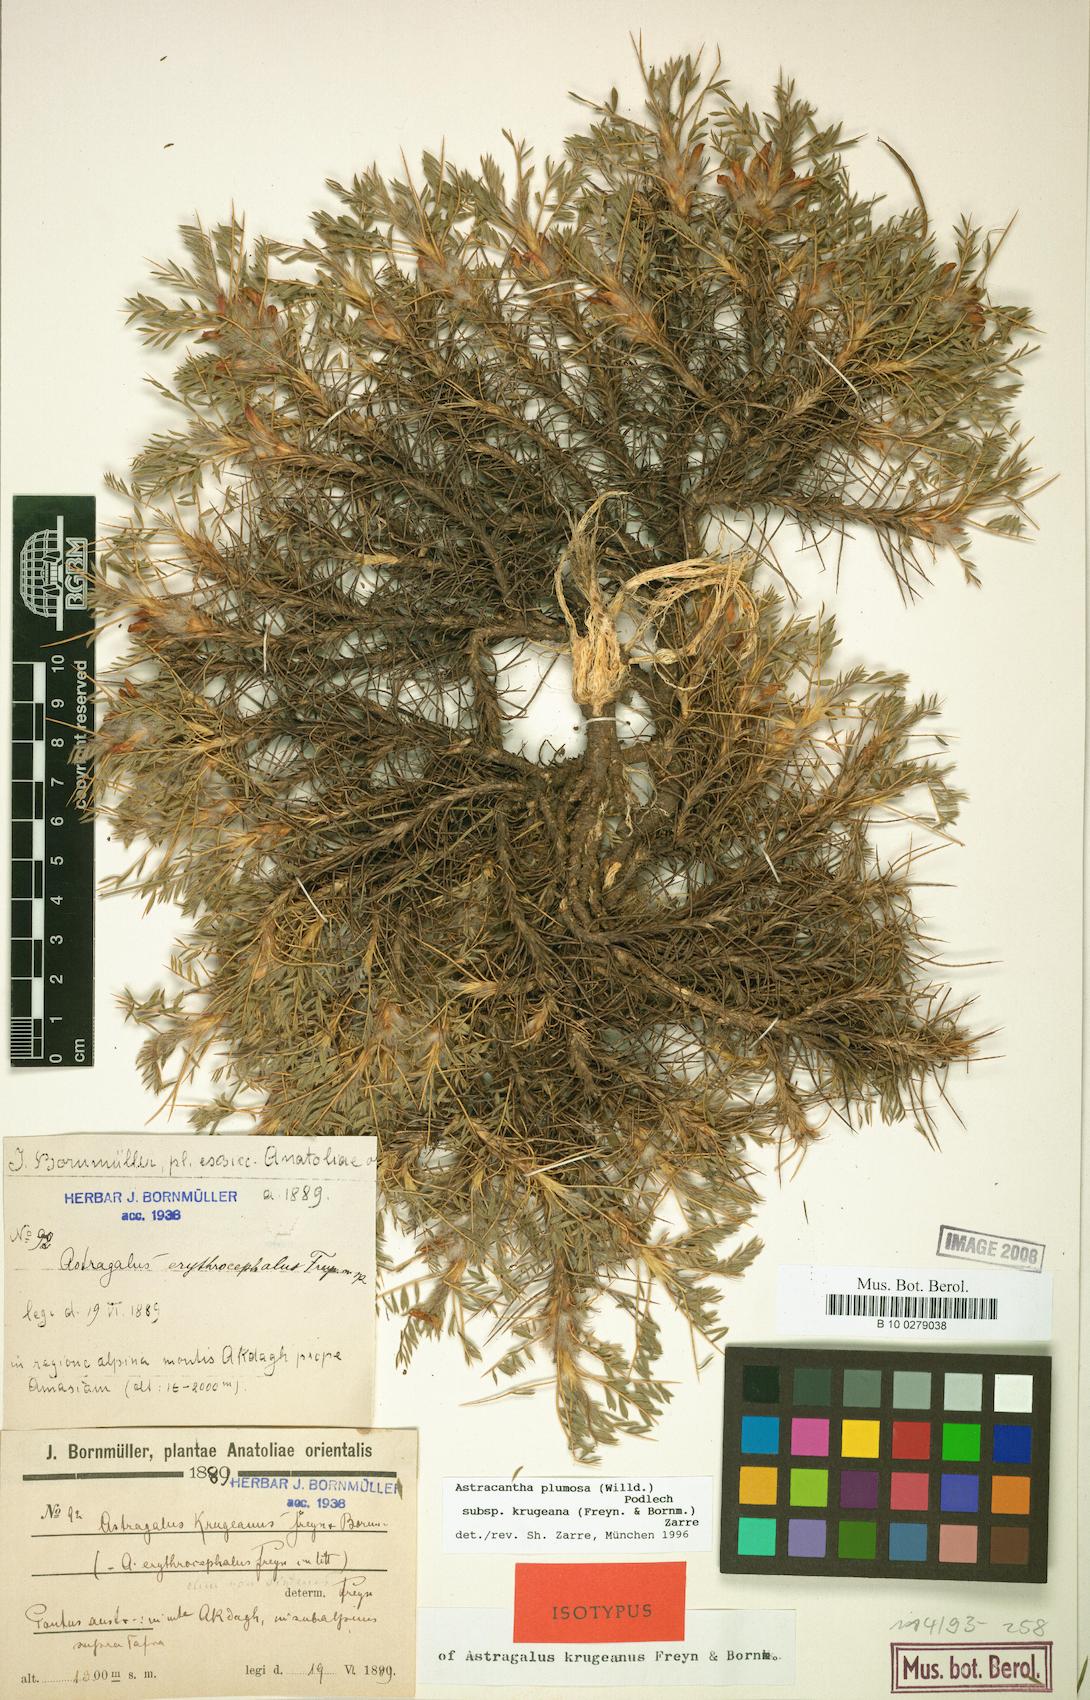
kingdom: Plantae
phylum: Tracheophyta
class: Magnoliopsida
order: Fabales
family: Fabaceae
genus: Astragalus
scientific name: Astragalus plumosus
